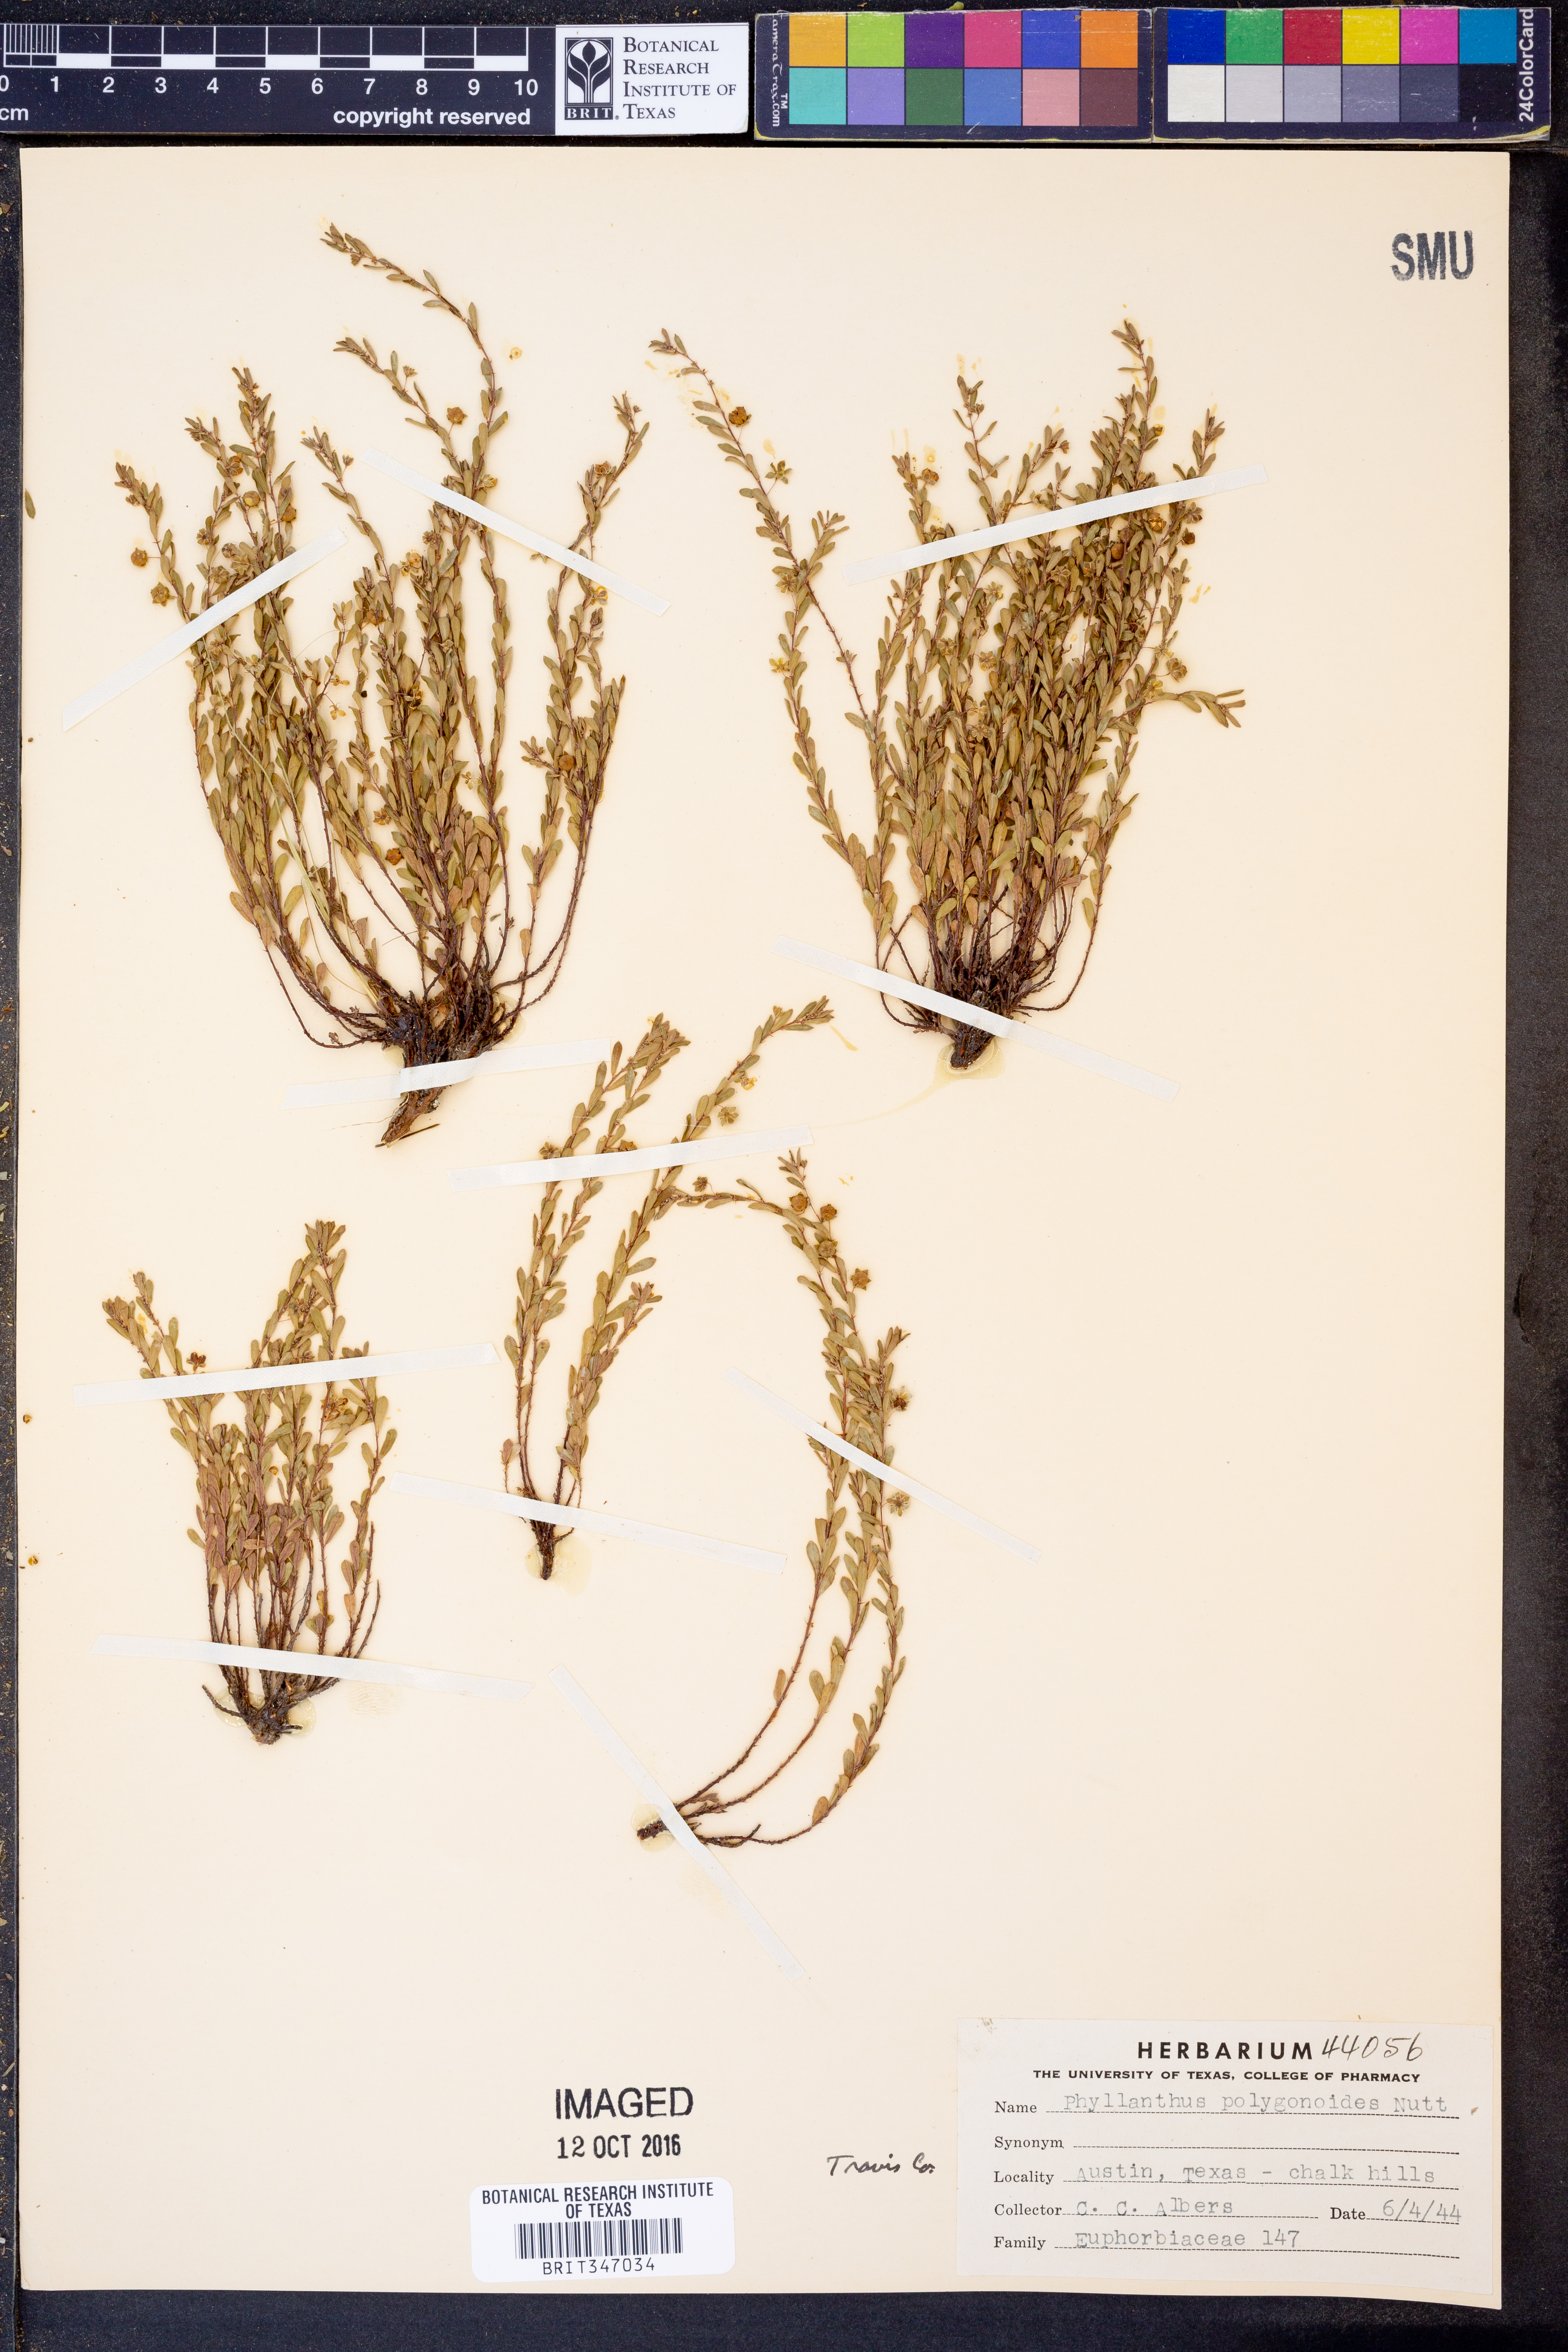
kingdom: Plantae
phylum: Tracheophyta
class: Magnoliopsida
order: Malpighiales
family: Phyllanthaceae
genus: Phyllanthus
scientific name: Phyllanthus polygonoides
